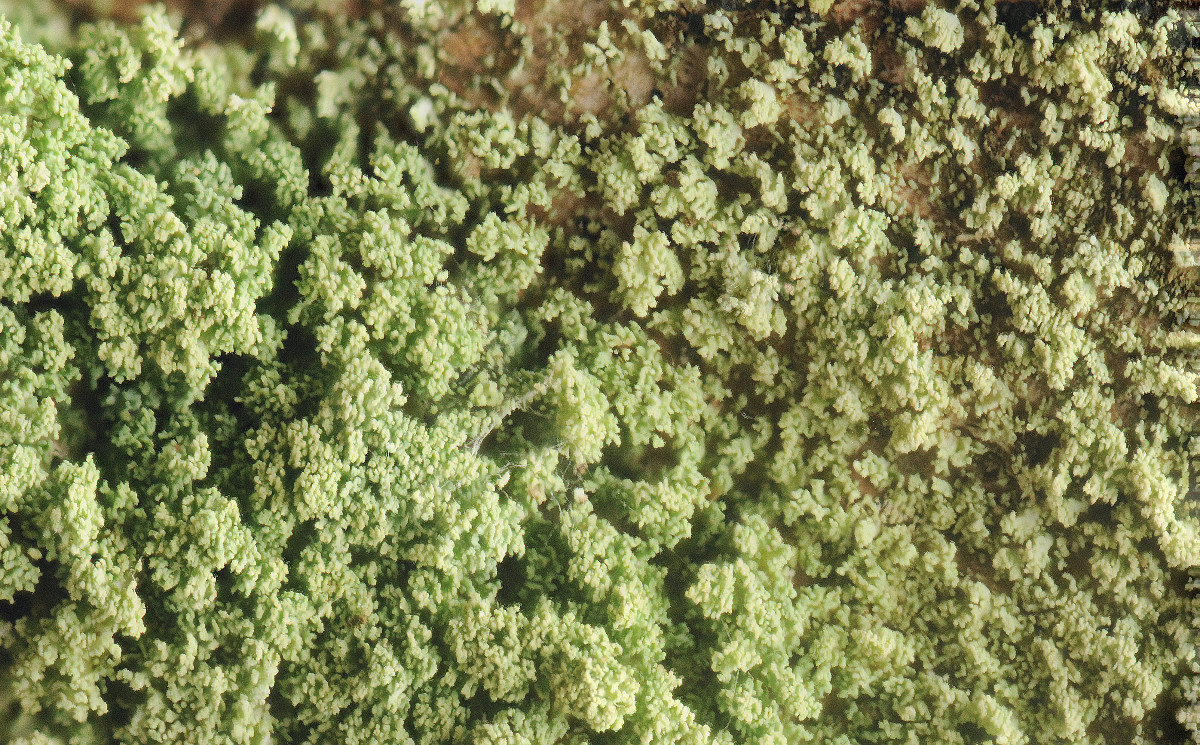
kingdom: Fungi
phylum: Ascomycota
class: Lecanoromycetes
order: Lecanorales
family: Cladoniaceae
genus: Cladonia
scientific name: Cladonia parasitica
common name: dværg-bægerlav
